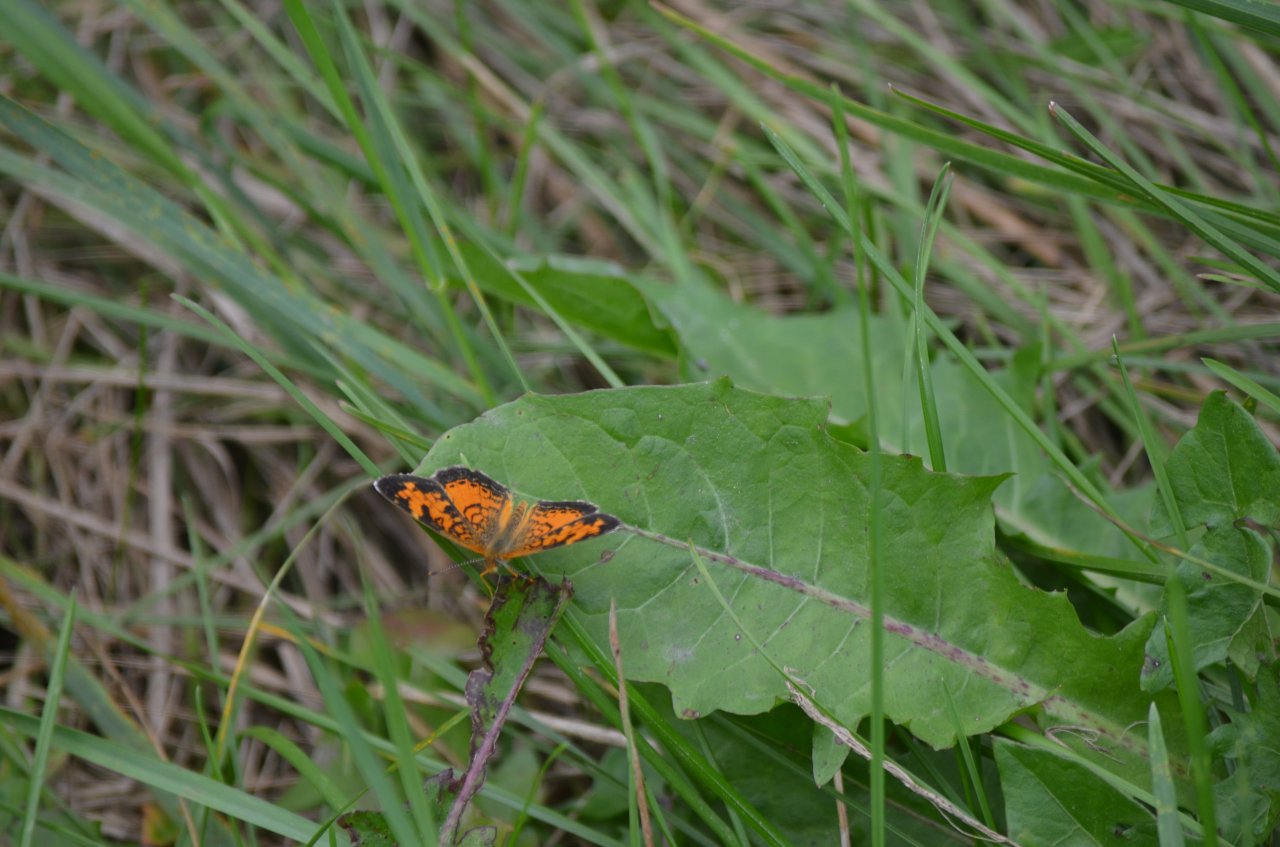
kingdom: Animalia
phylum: Arthropoda
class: Insecta
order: Lepidoptera
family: Nymphalidae
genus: Phyciodes
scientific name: Phyciodes tharos
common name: Northern Crescent
